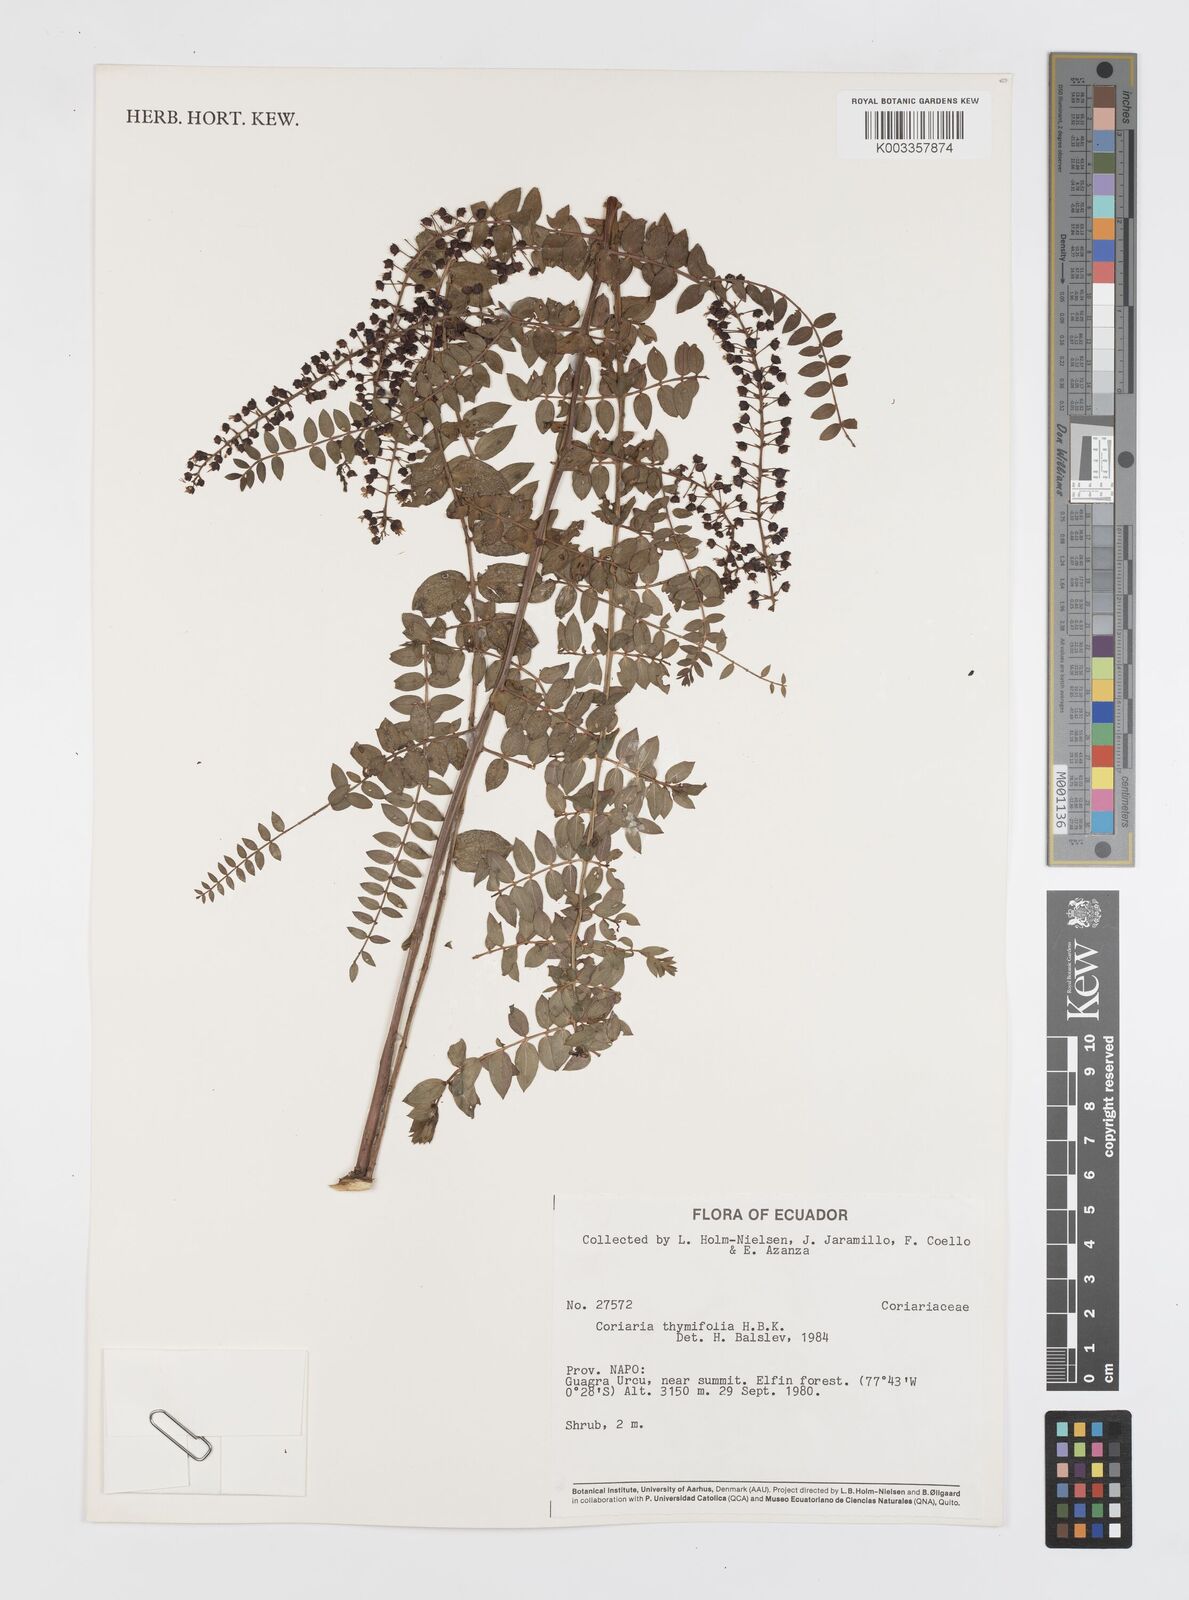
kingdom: Plantae
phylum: Tracheophyta
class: Magnoliopsida
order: Cucurbitales
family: Coriariaceae
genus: Coriaria
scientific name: Coriaria microphylla
